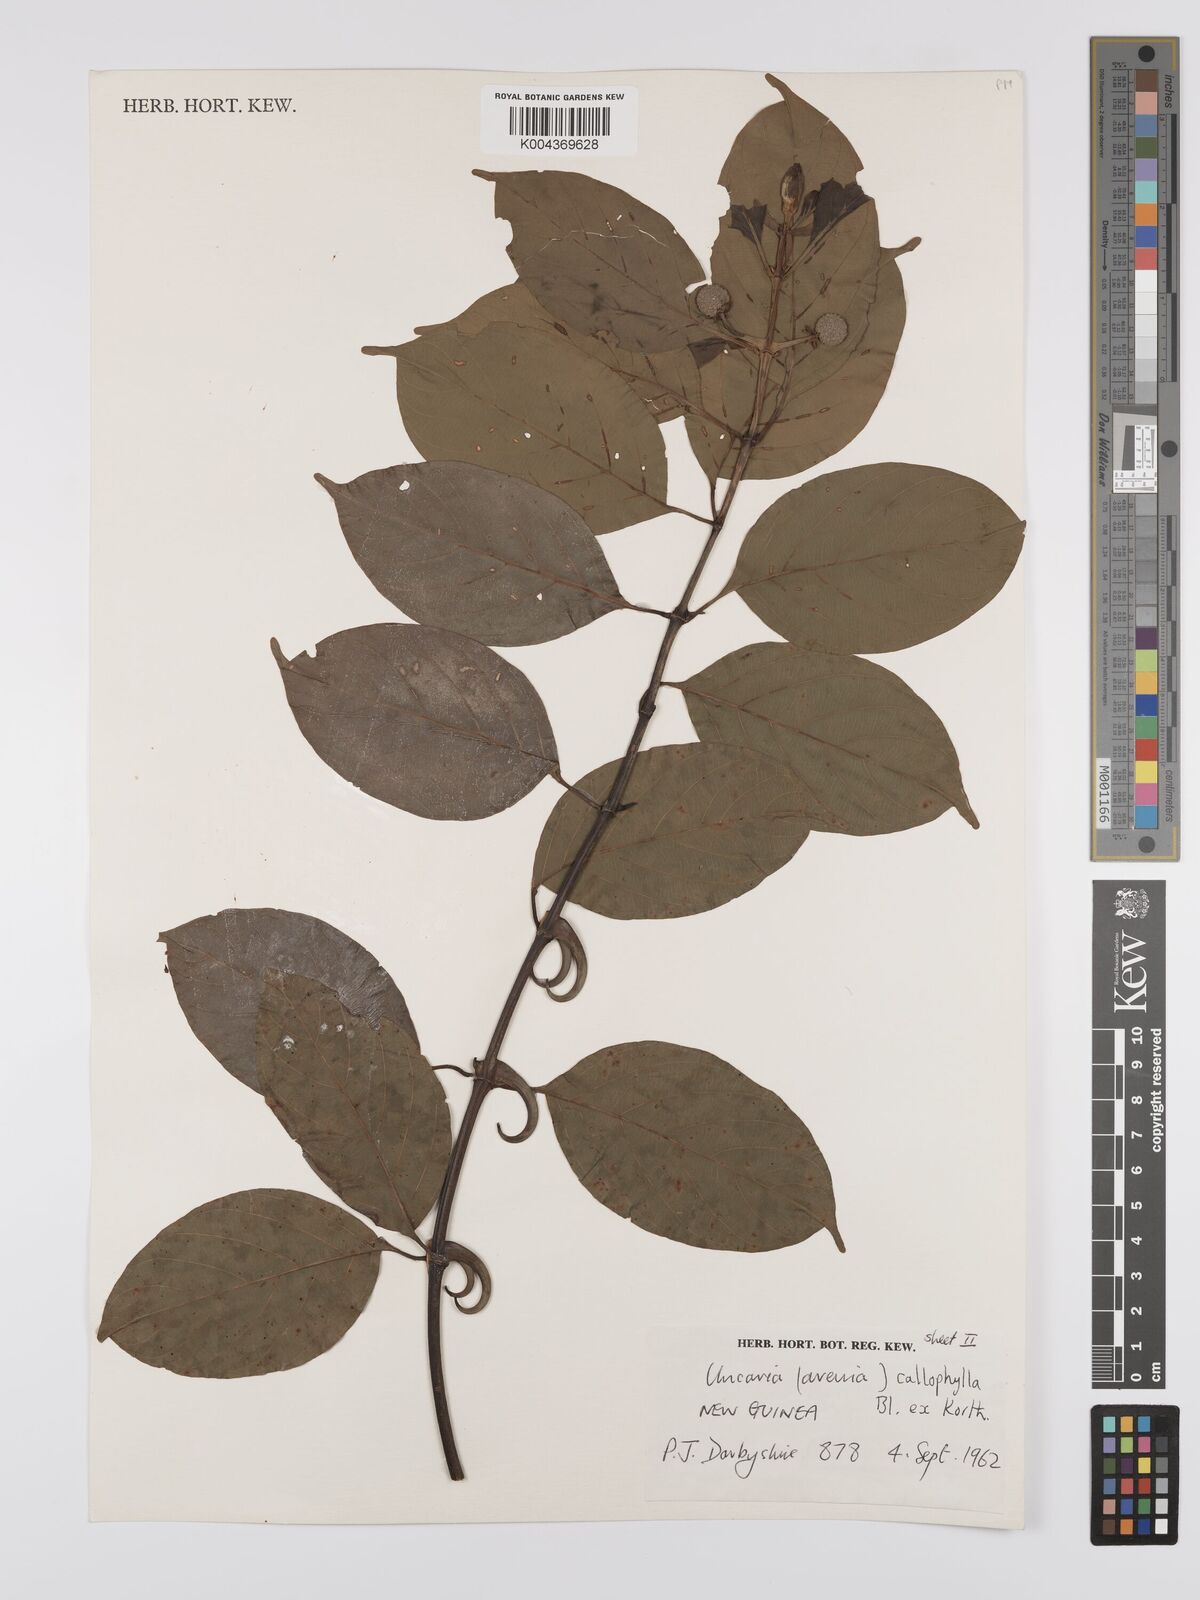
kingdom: Plantae
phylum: Tracheophyta
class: Magnoliopsida
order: Gentianales
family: Rubiaceae
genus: Uncaria
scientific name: Uncaria callophylla
